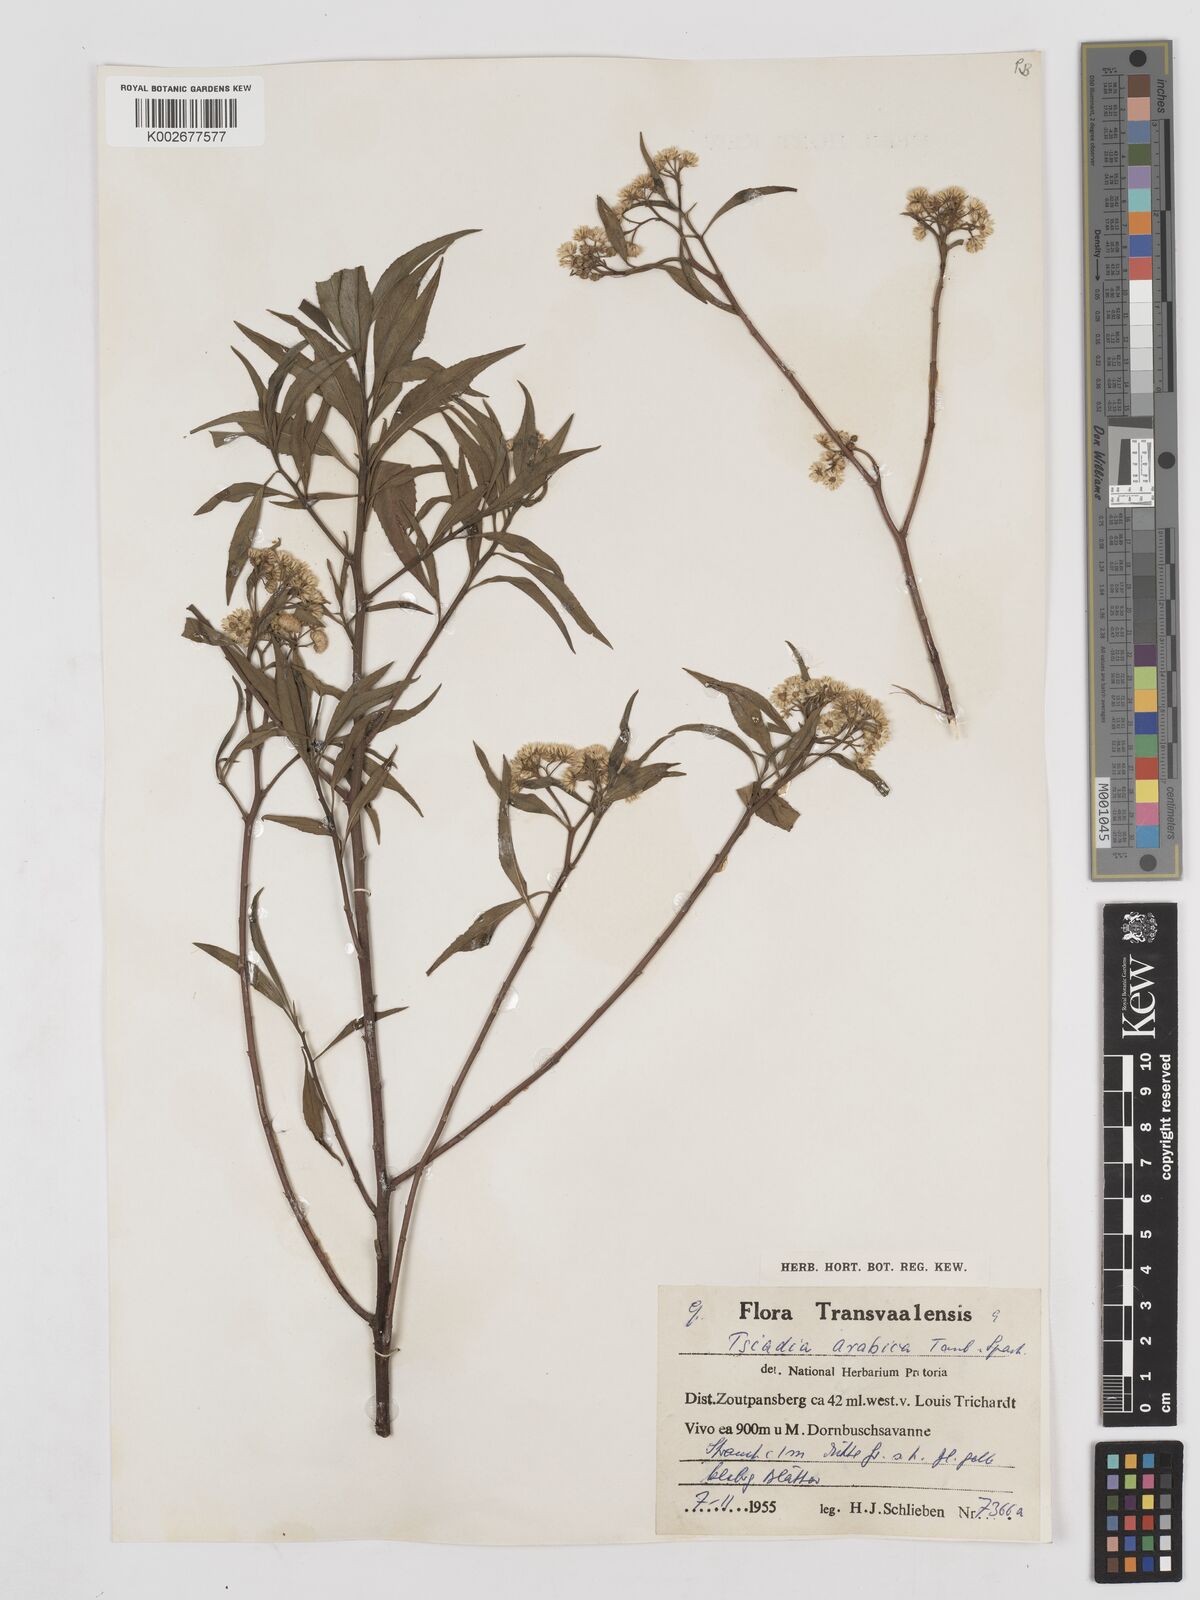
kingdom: Plantae
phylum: Tracheophyta
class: Magnoliopsida
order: Asterales
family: Asteraceae
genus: Psiadia
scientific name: Psiadia punctulata
